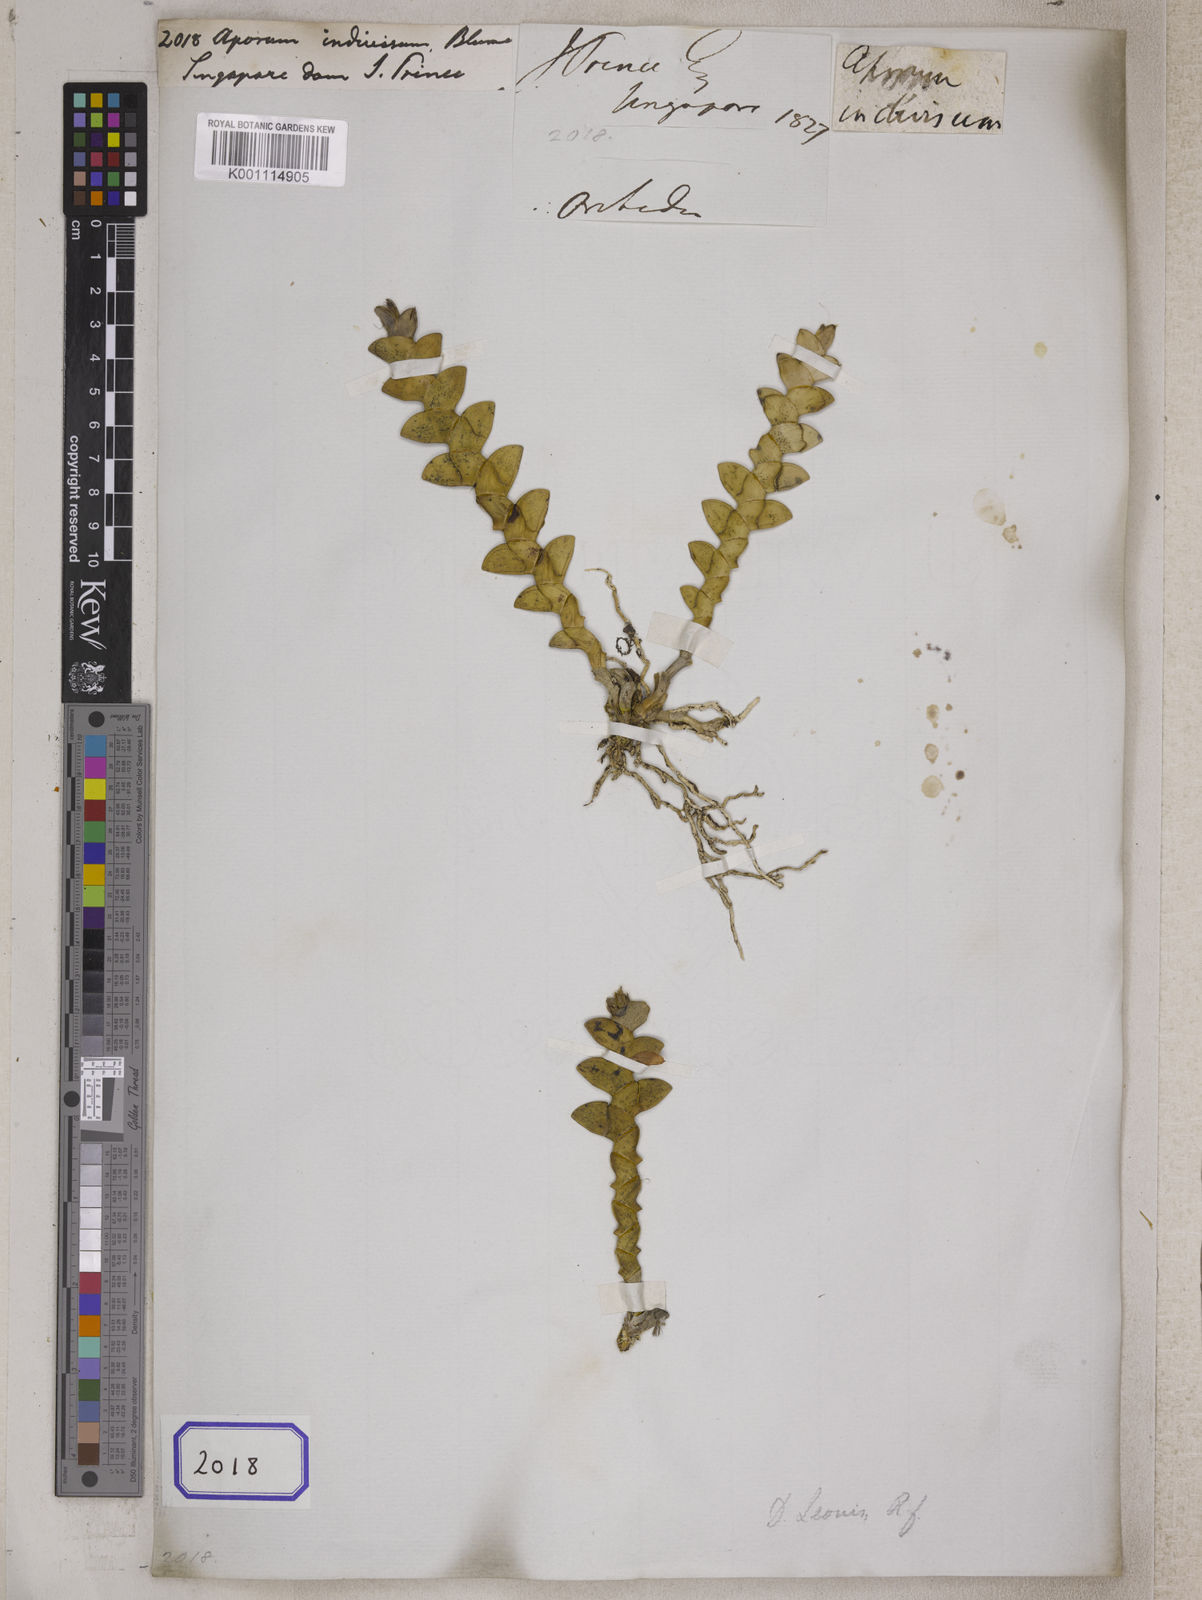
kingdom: Plantae
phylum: Tracheophyta
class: Liliopsida
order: Asparagales
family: Orchidaceae
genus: Dendrobium
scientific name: Dendrobium indivisum
